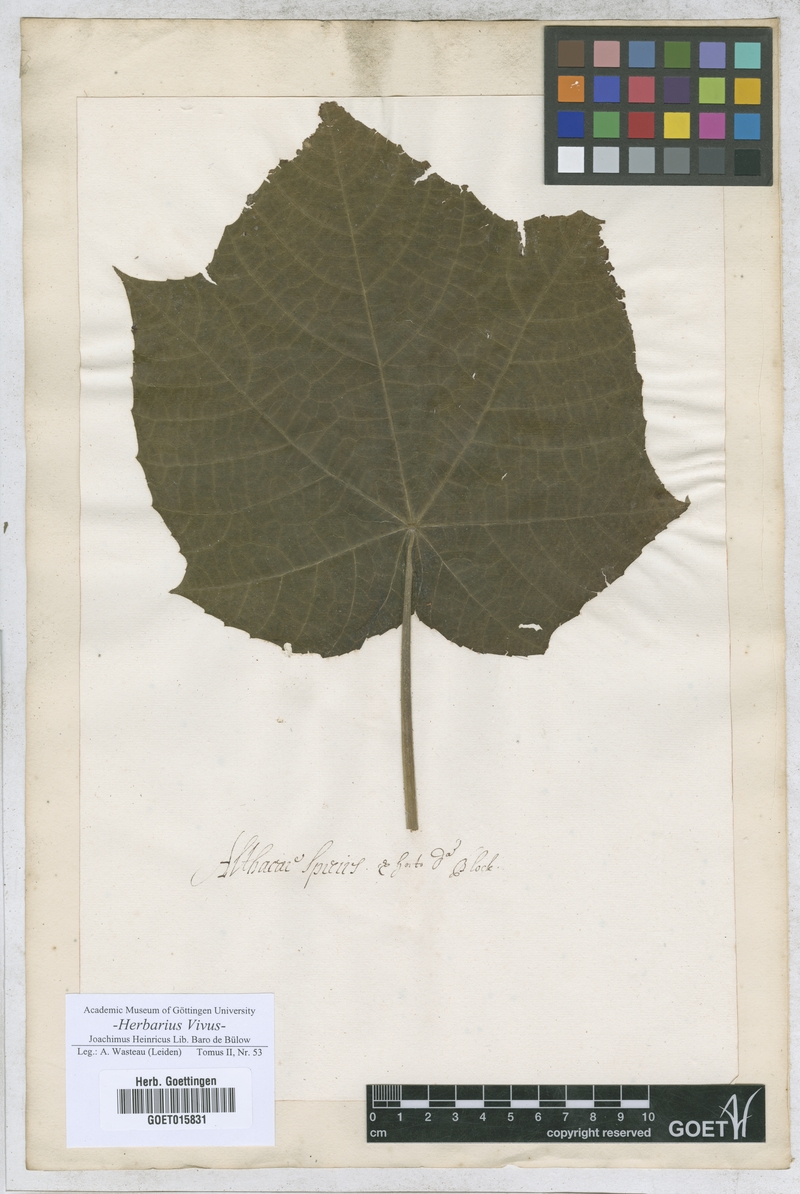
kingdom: Plantae
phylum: Tracheophyta
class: Magnoliopsida
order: Malvales
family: Malvaceae
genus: Althaea
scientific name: Althaea
